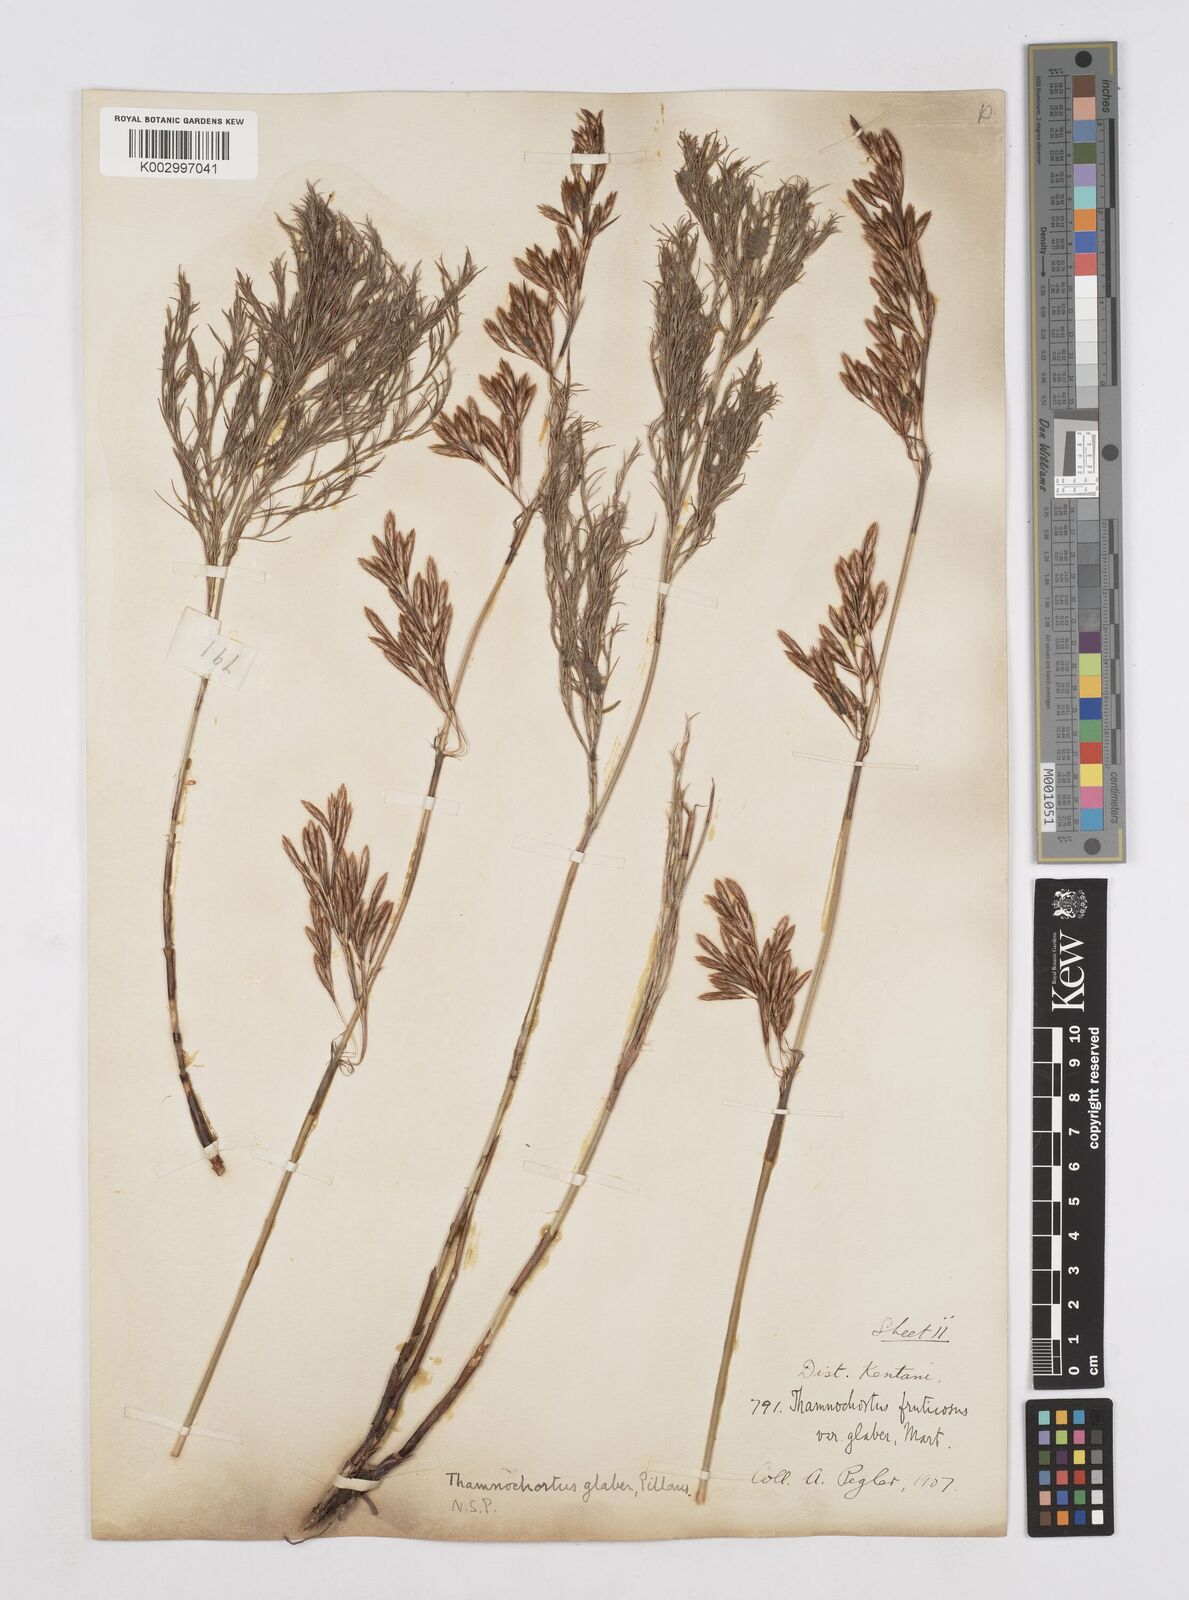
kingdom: Plantae
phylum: Tracheophyta
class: Liliopsida
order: Poales
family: Restionaceae
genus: Thamnochortus
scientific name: Thamnochortus glaber
